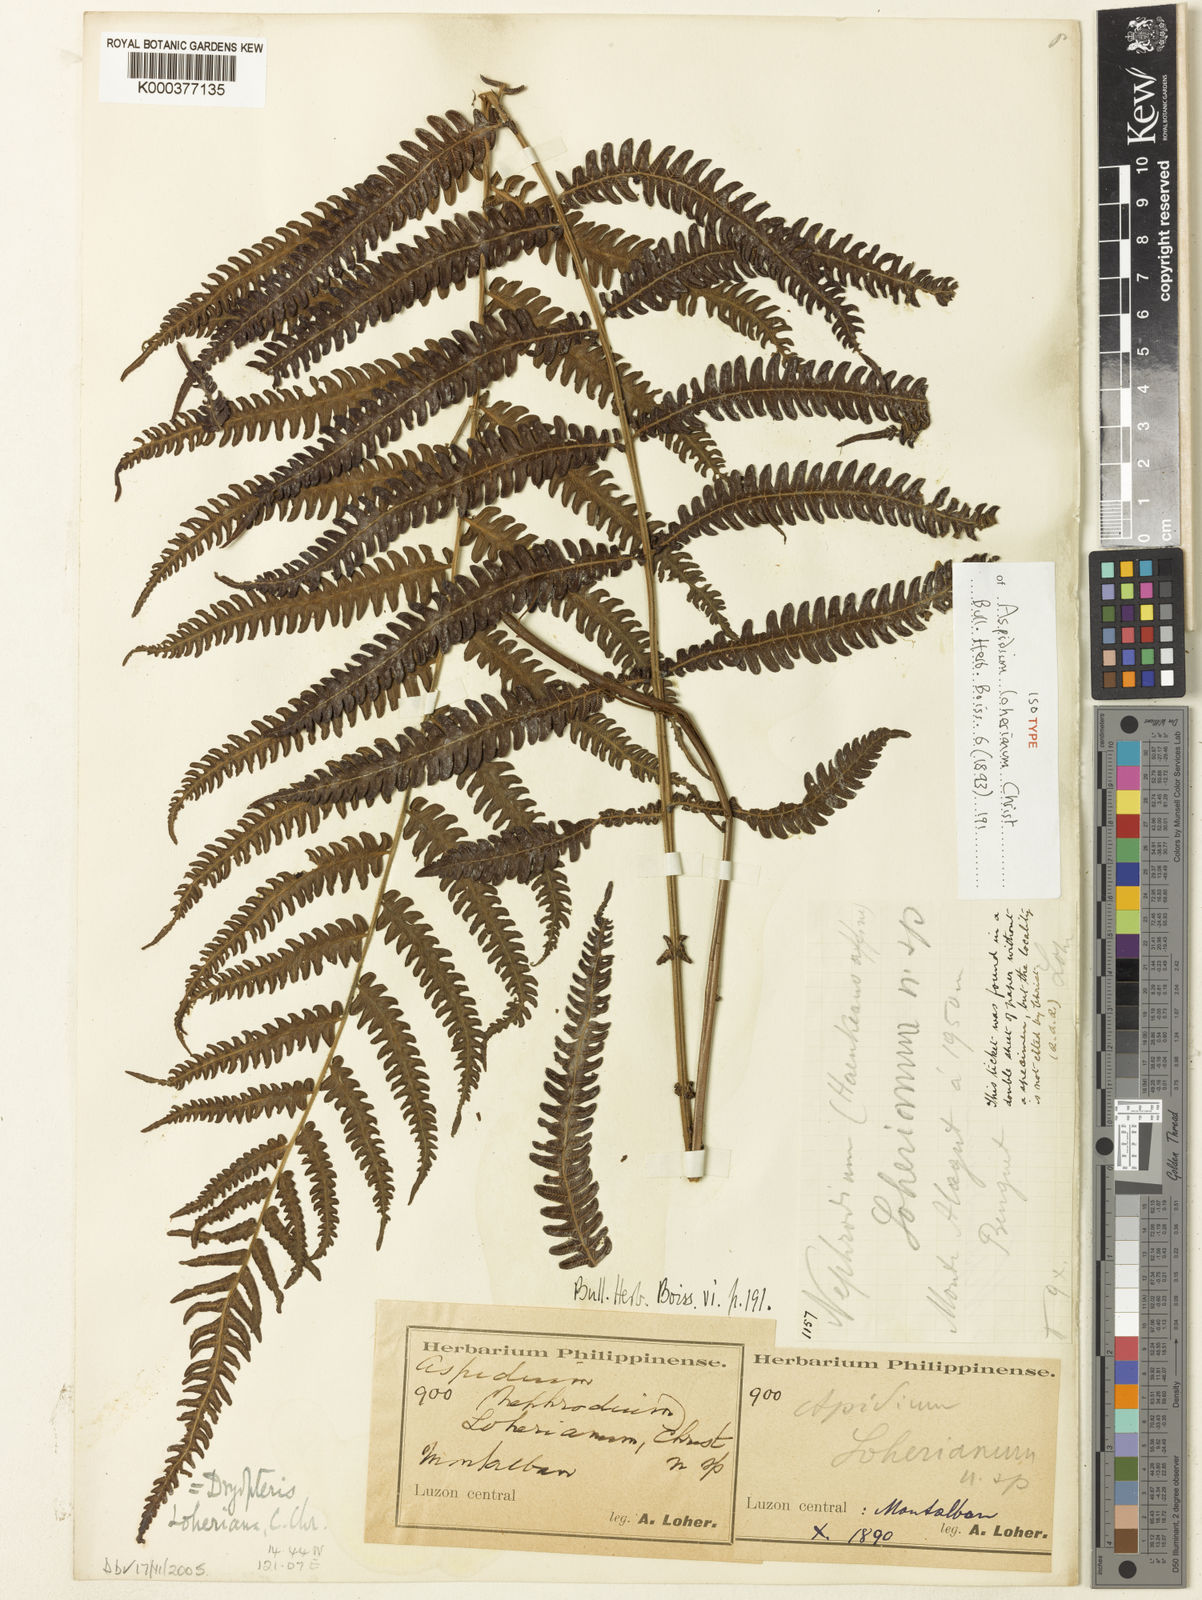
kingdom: Plantae
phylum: Tracheophyta
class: Polypodiopsida
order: Polypodiales
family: Thelypteridaceae
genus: Sphaerostephanos
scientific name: Sphaerostephanos loherianus
